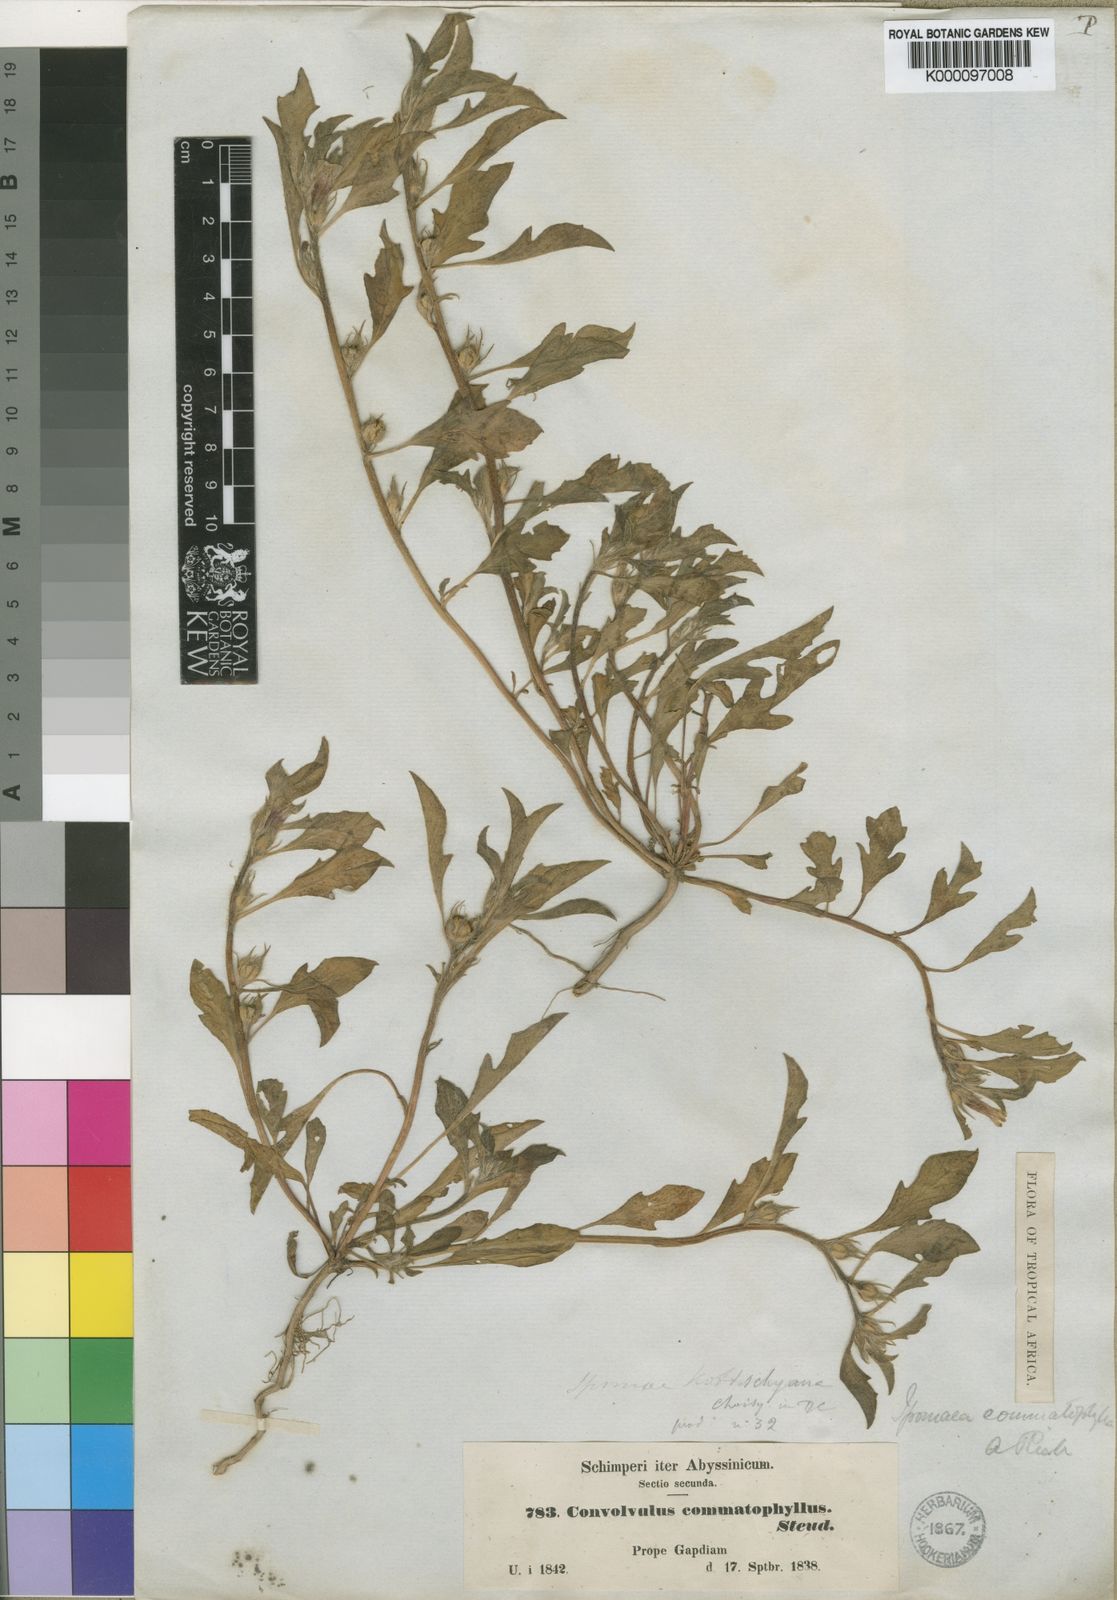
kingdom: Plantae
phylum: Tracheophyta
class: Magnoliopsida
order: Solanales
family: Convolvulaceae
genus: Ipomoea
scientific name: Ipomoea polymorpha
